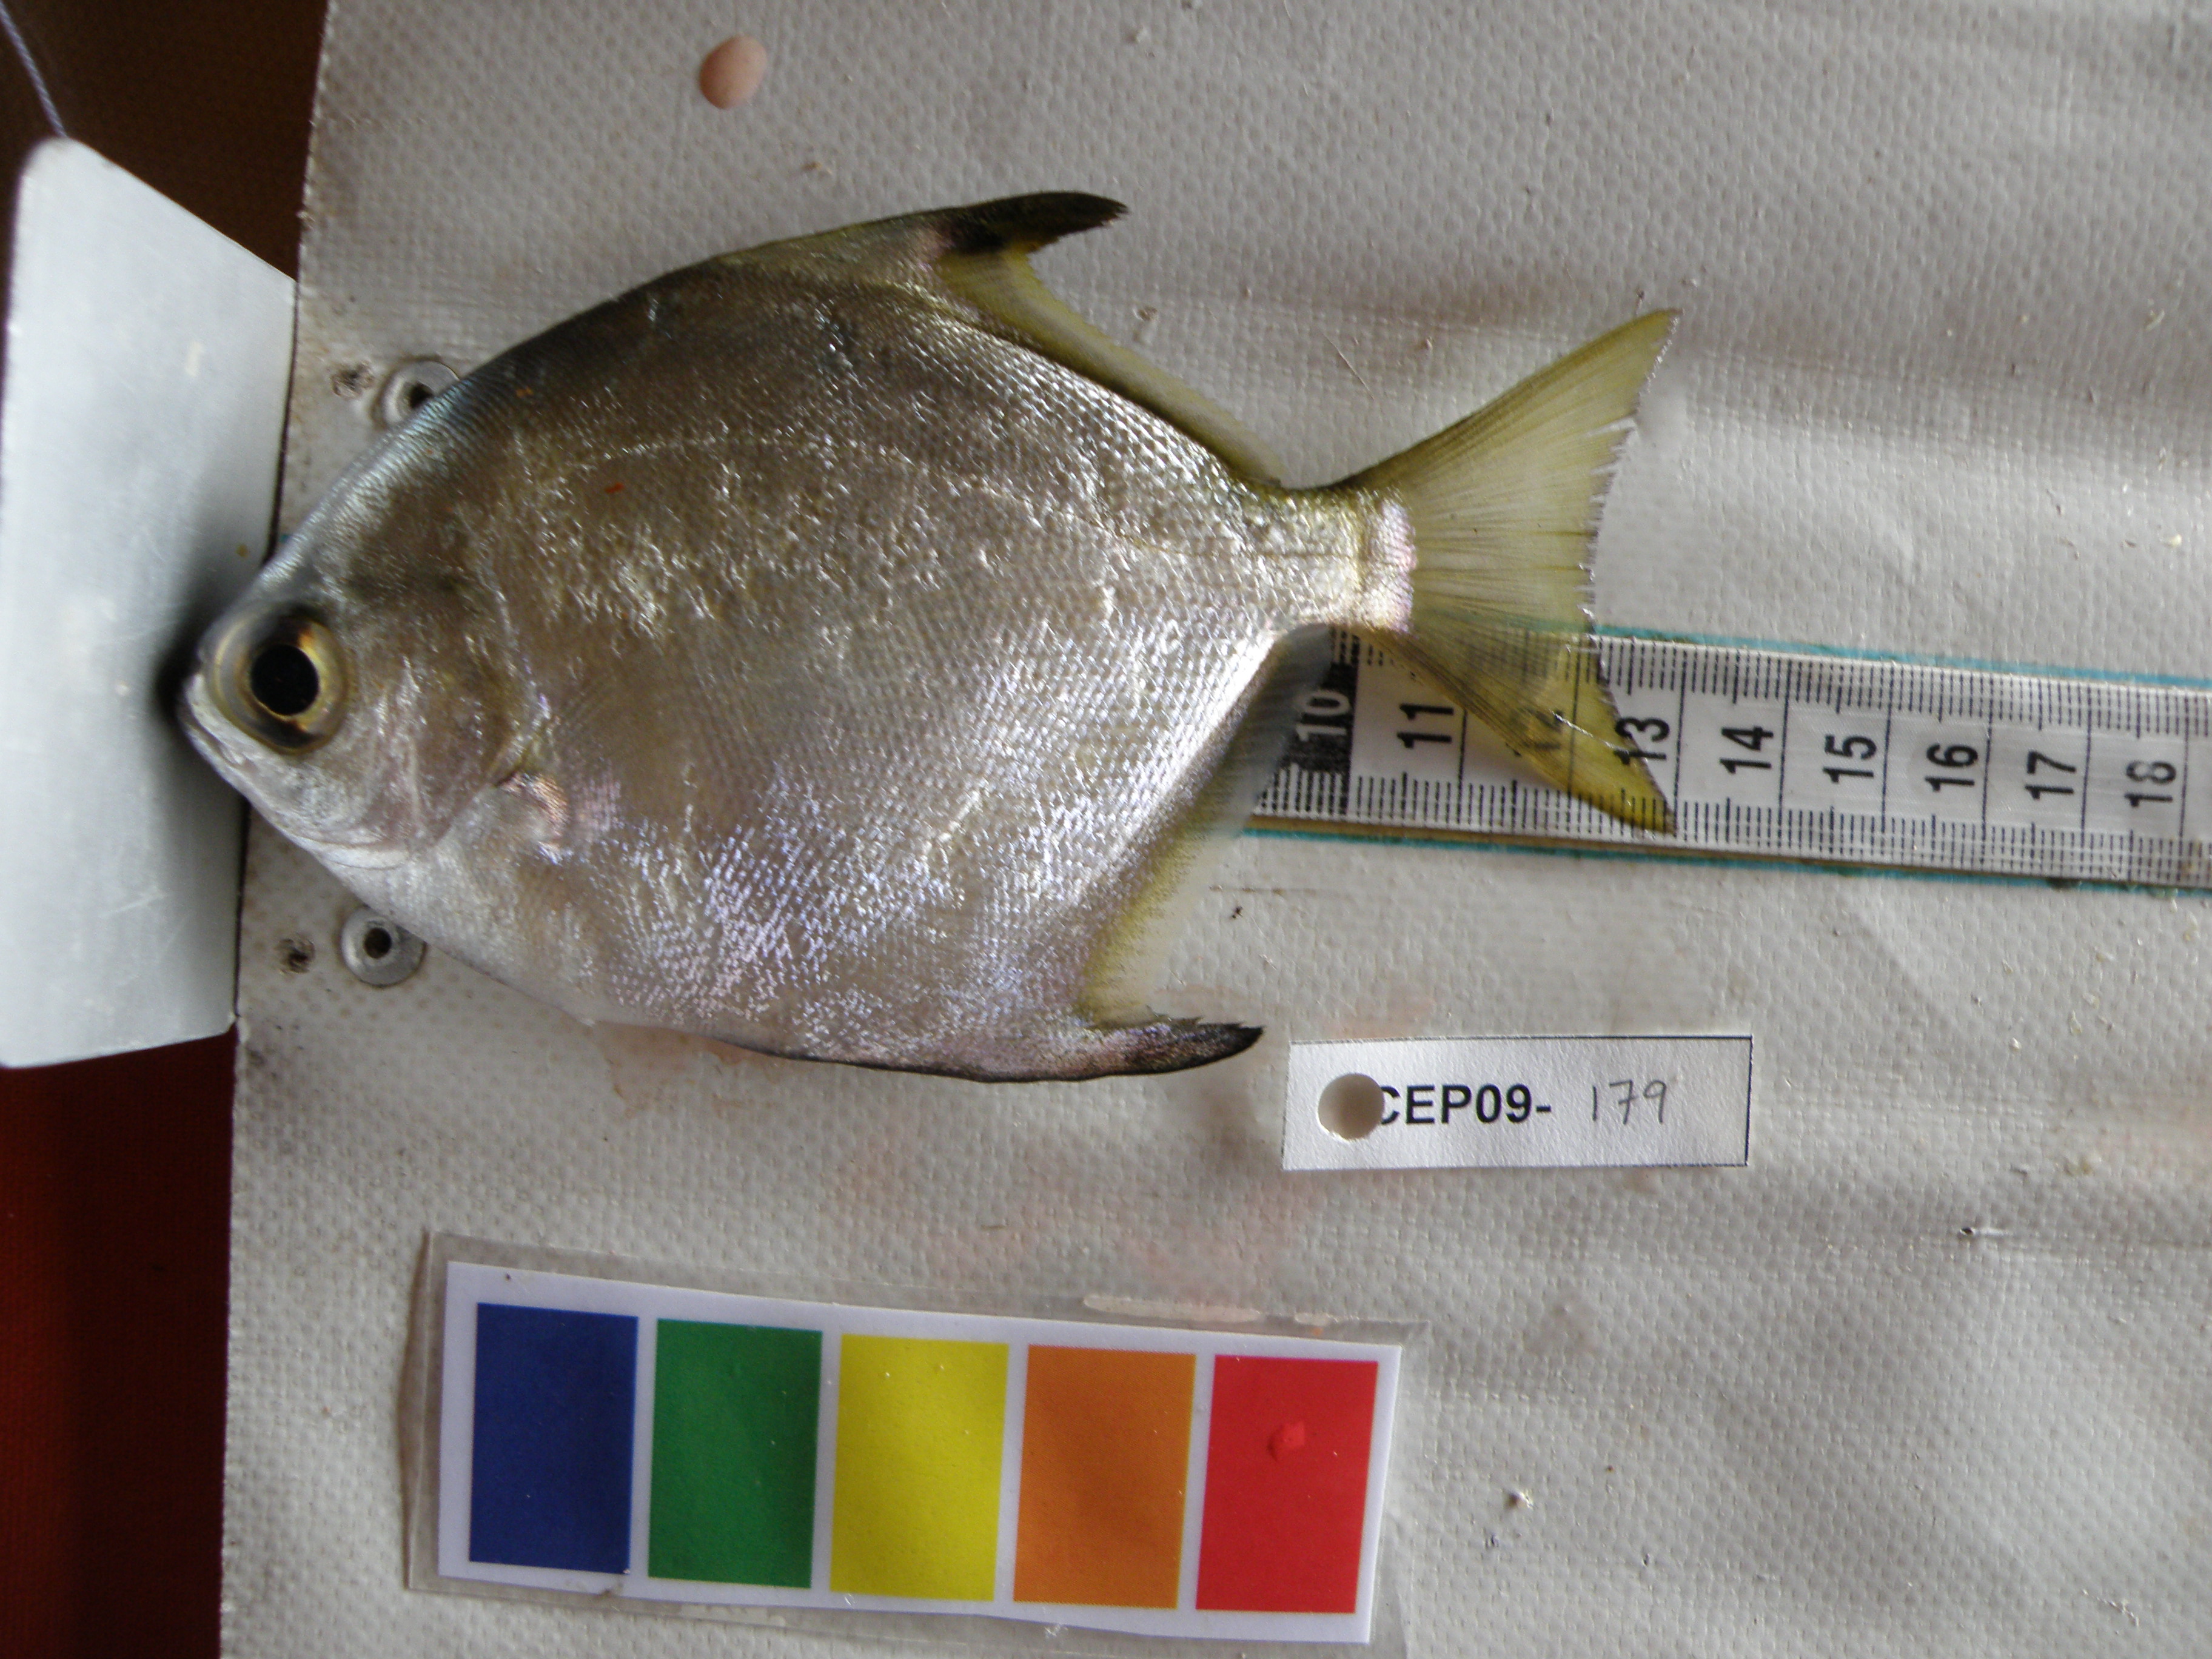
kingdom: Animalia
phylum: Chordata
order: Perciformes
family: Monodactylidae
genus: Monodactylus
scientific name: Monodactylus argenteus
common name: Silver moony
